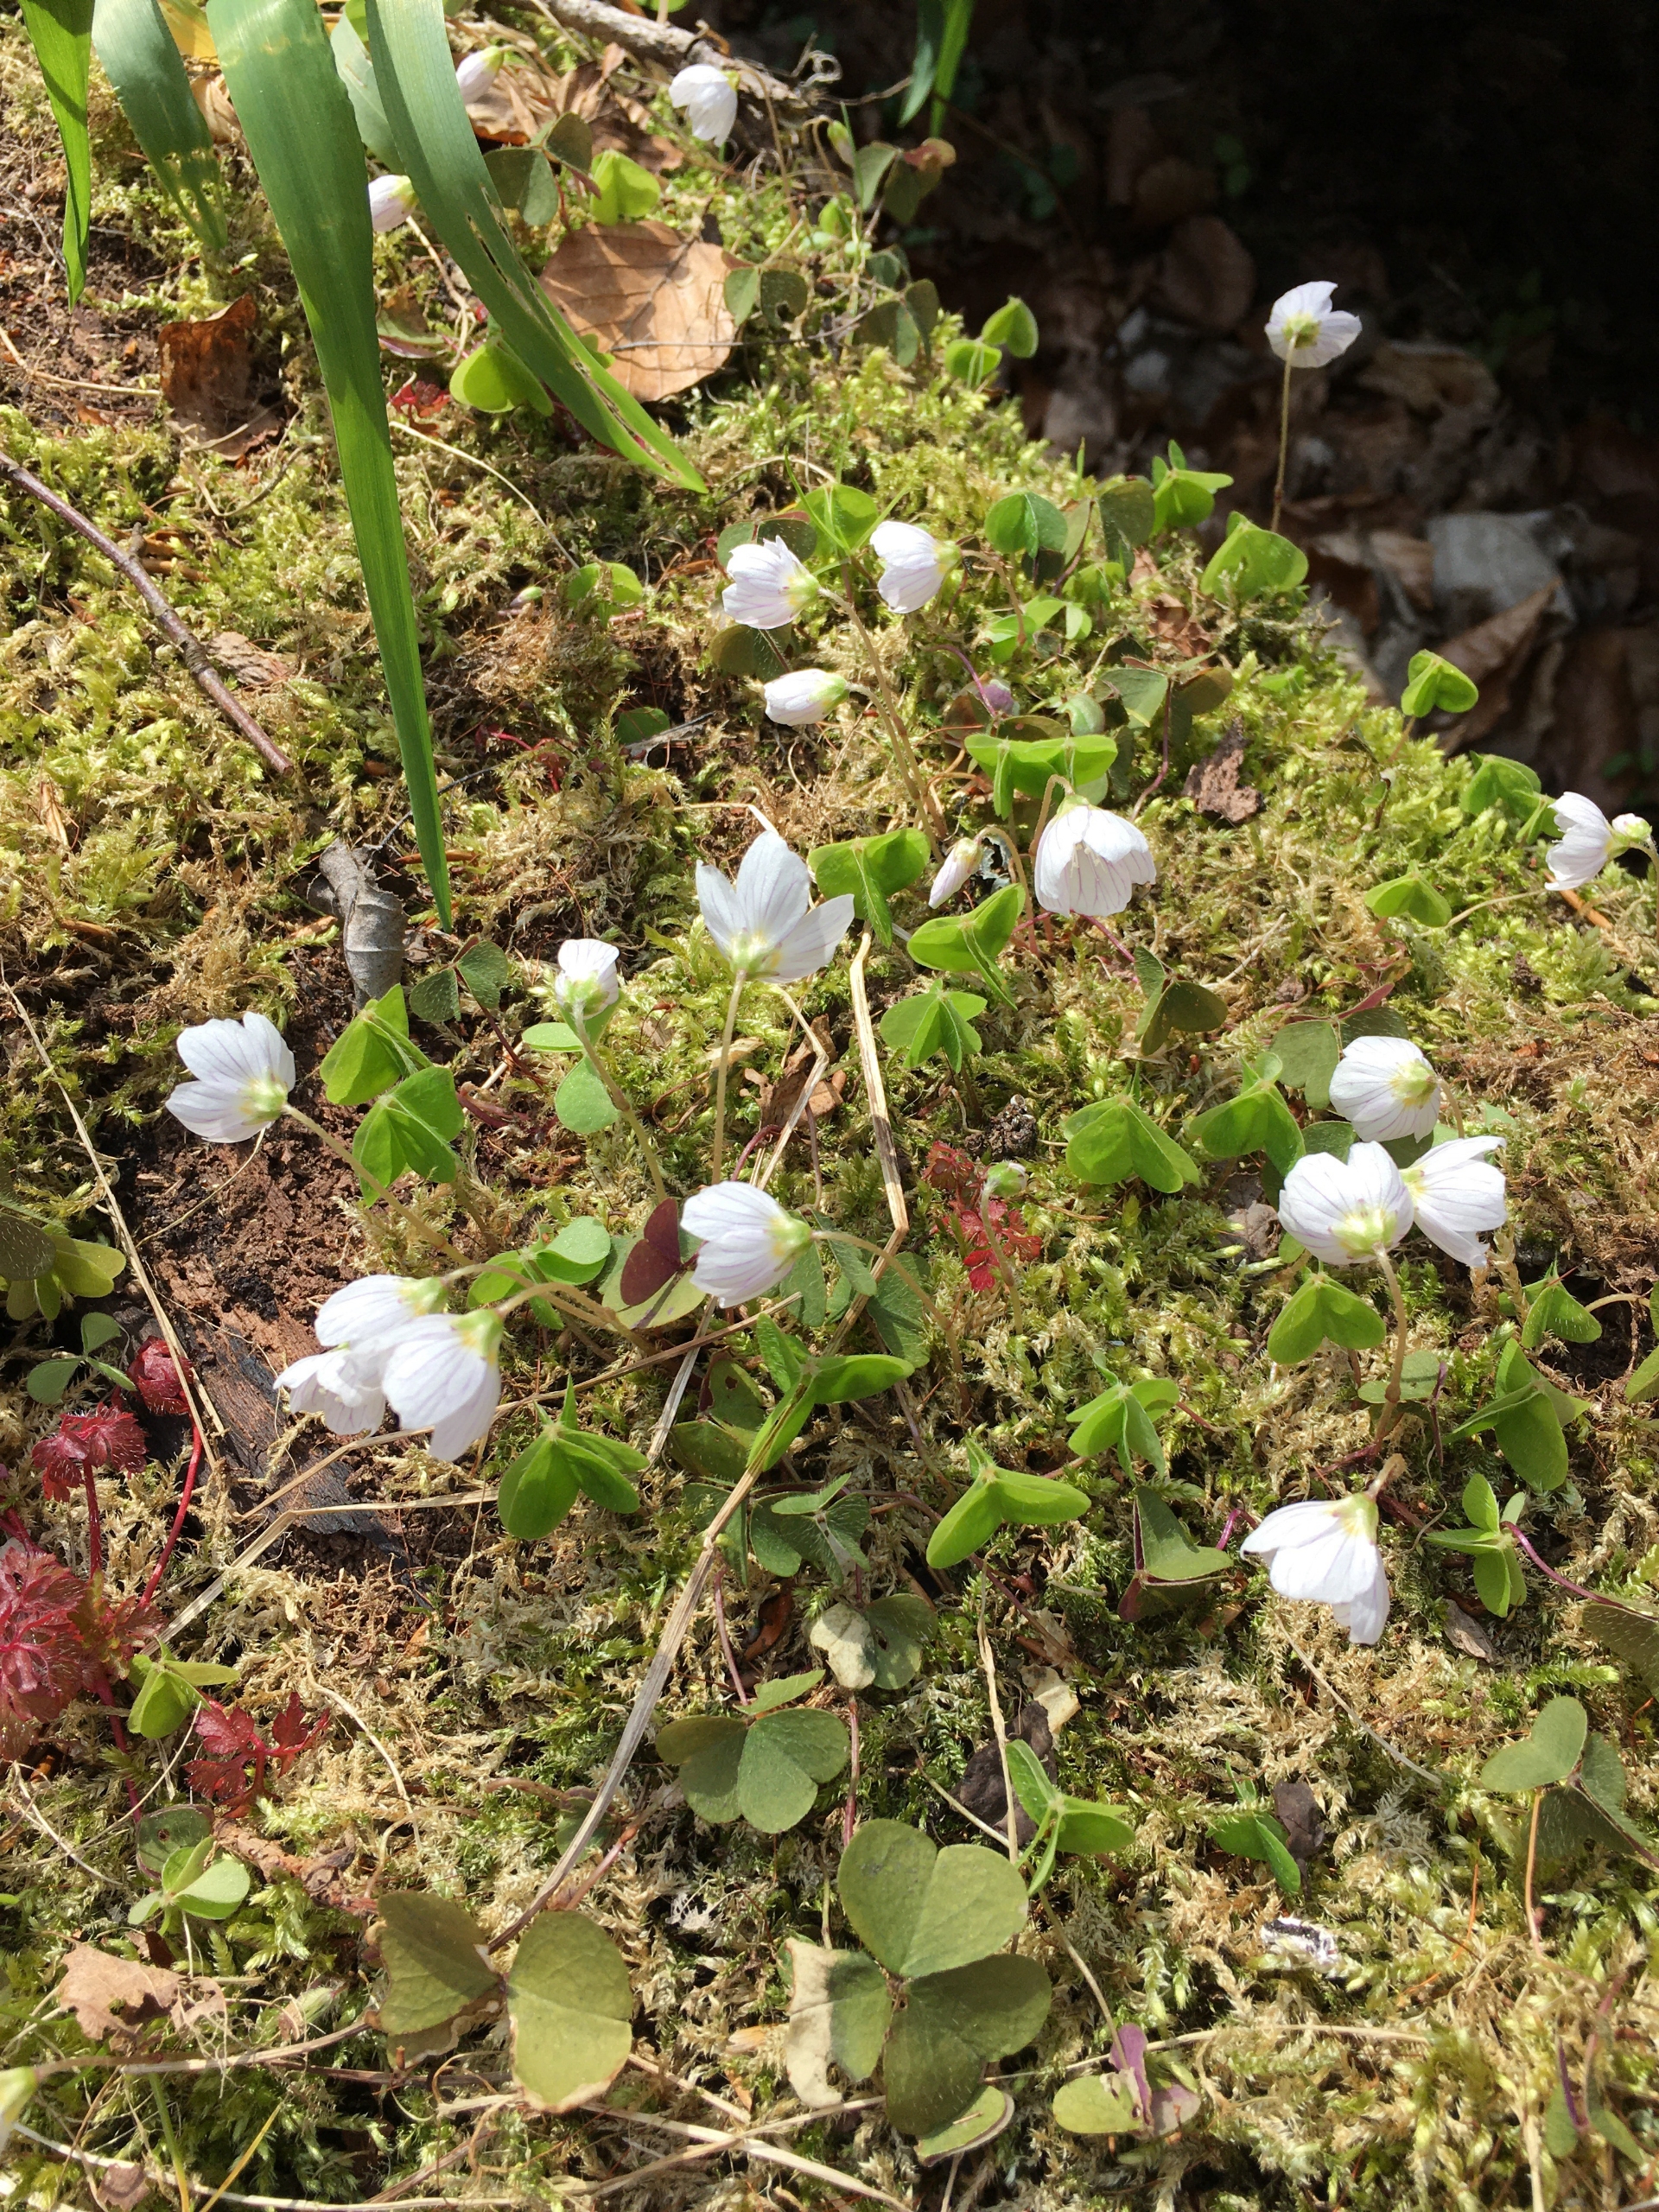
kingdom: Plantae
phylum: Tracheophyta
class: Magnoliopsida
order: Oxalidales
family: Oxalidaceae
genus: Oxalis
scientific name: Oxalis acetosella
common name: Skovsyre
